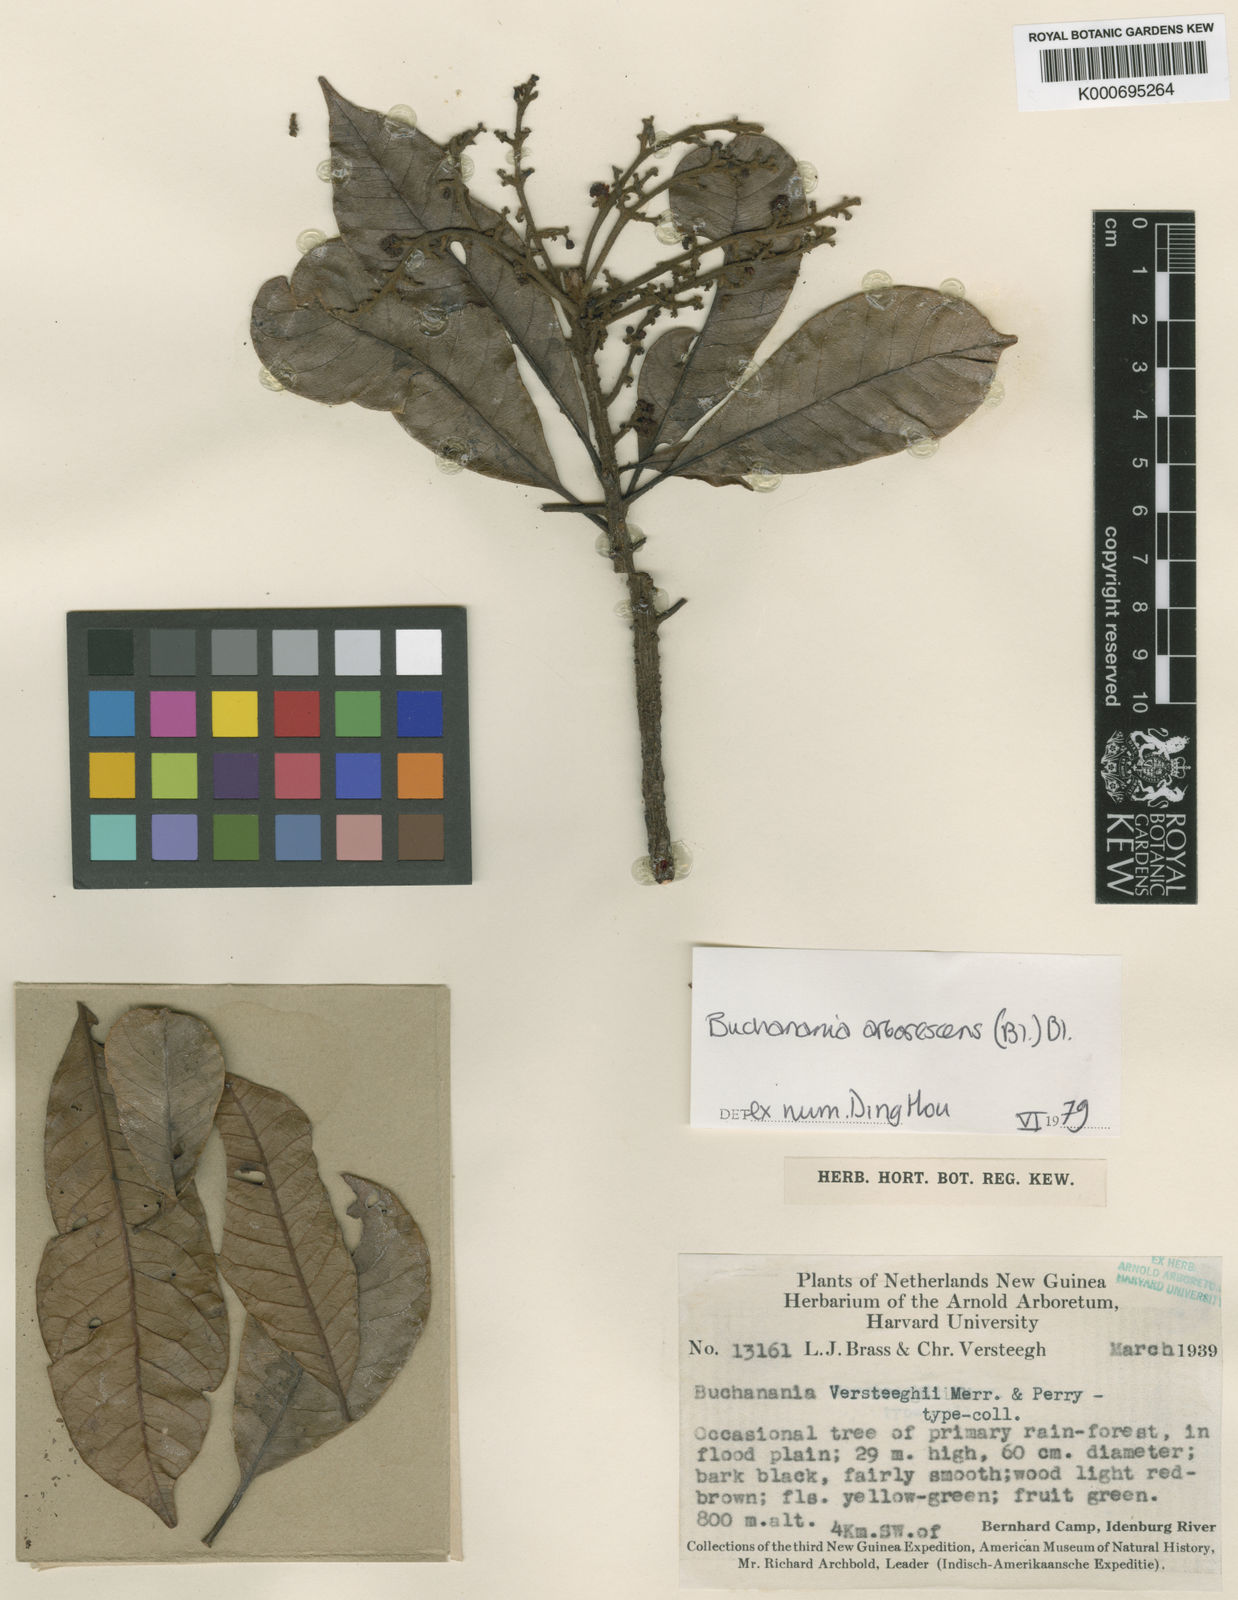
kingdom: Plantae
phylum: Tracheophyta
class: Magnoliopsida
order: Sapindales
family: Anacardiaceae
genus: Buchanania
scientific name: Buchanania arborescens
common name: Sparrow’s mango
